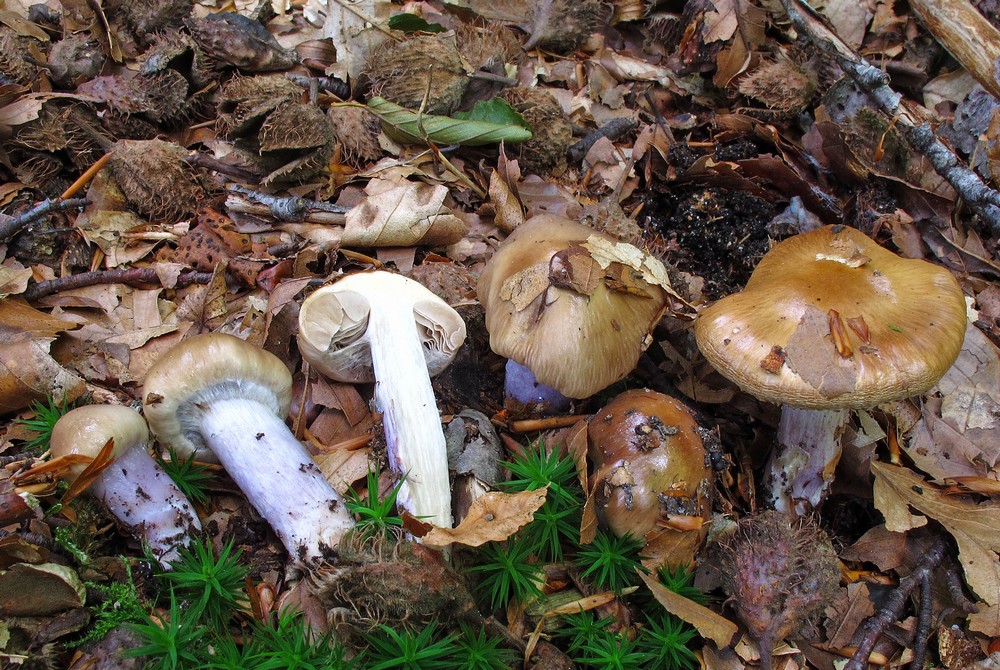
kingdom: Fungi
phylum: Basidiomycota
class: Agaricomycetes
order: Agaricales
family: Cortinariaceae
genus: Cortinarius
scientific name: Cortinarius stillatitius
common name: honningduftende slørhat
